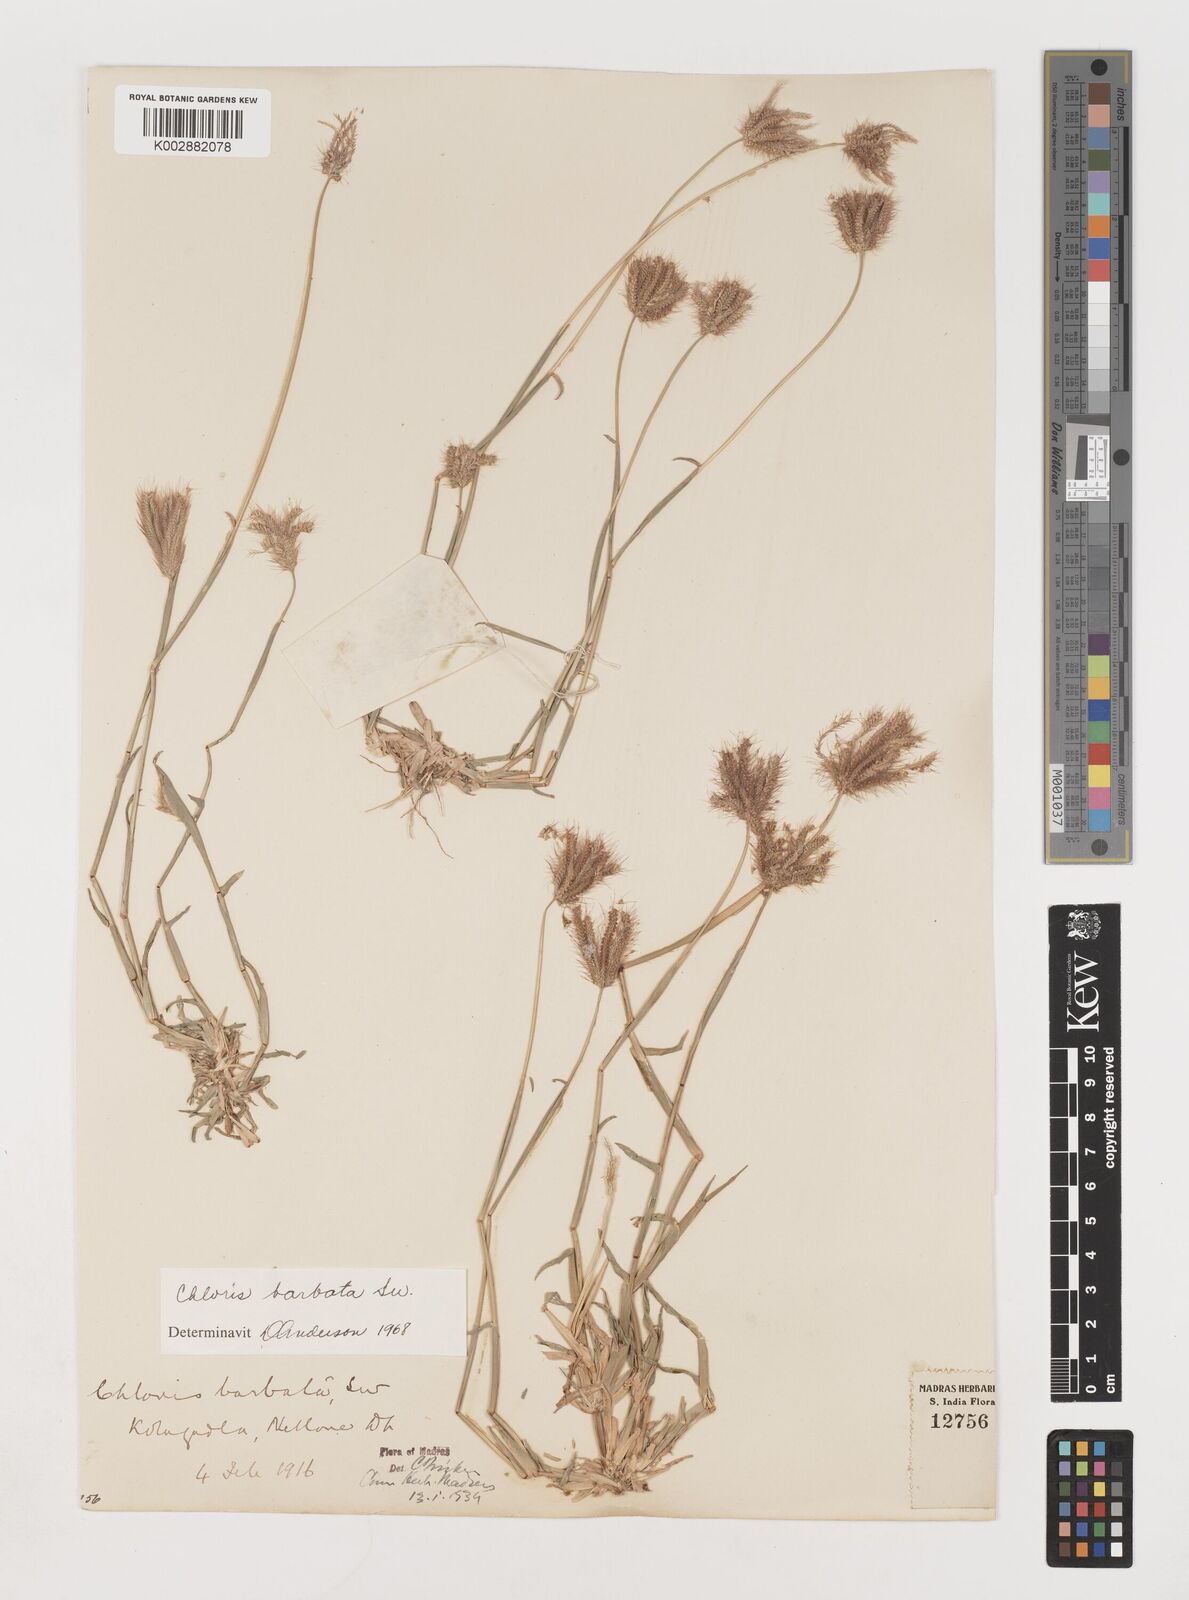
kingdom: Plantae
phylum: Tracheophyta
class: Liliopsida
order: Poales
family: Poaceae
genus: Chloris
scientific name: Chloris barbata
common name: Swollen fingergrass
